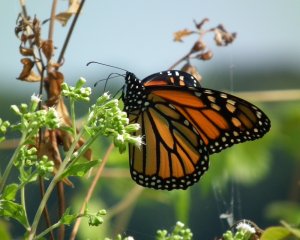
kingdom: Animalia
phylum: Arthropoda
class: Insecta
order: Lepidoptera
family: Nymphalidae
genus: Danaus
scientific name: Danaus plexippus
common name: Monarch
